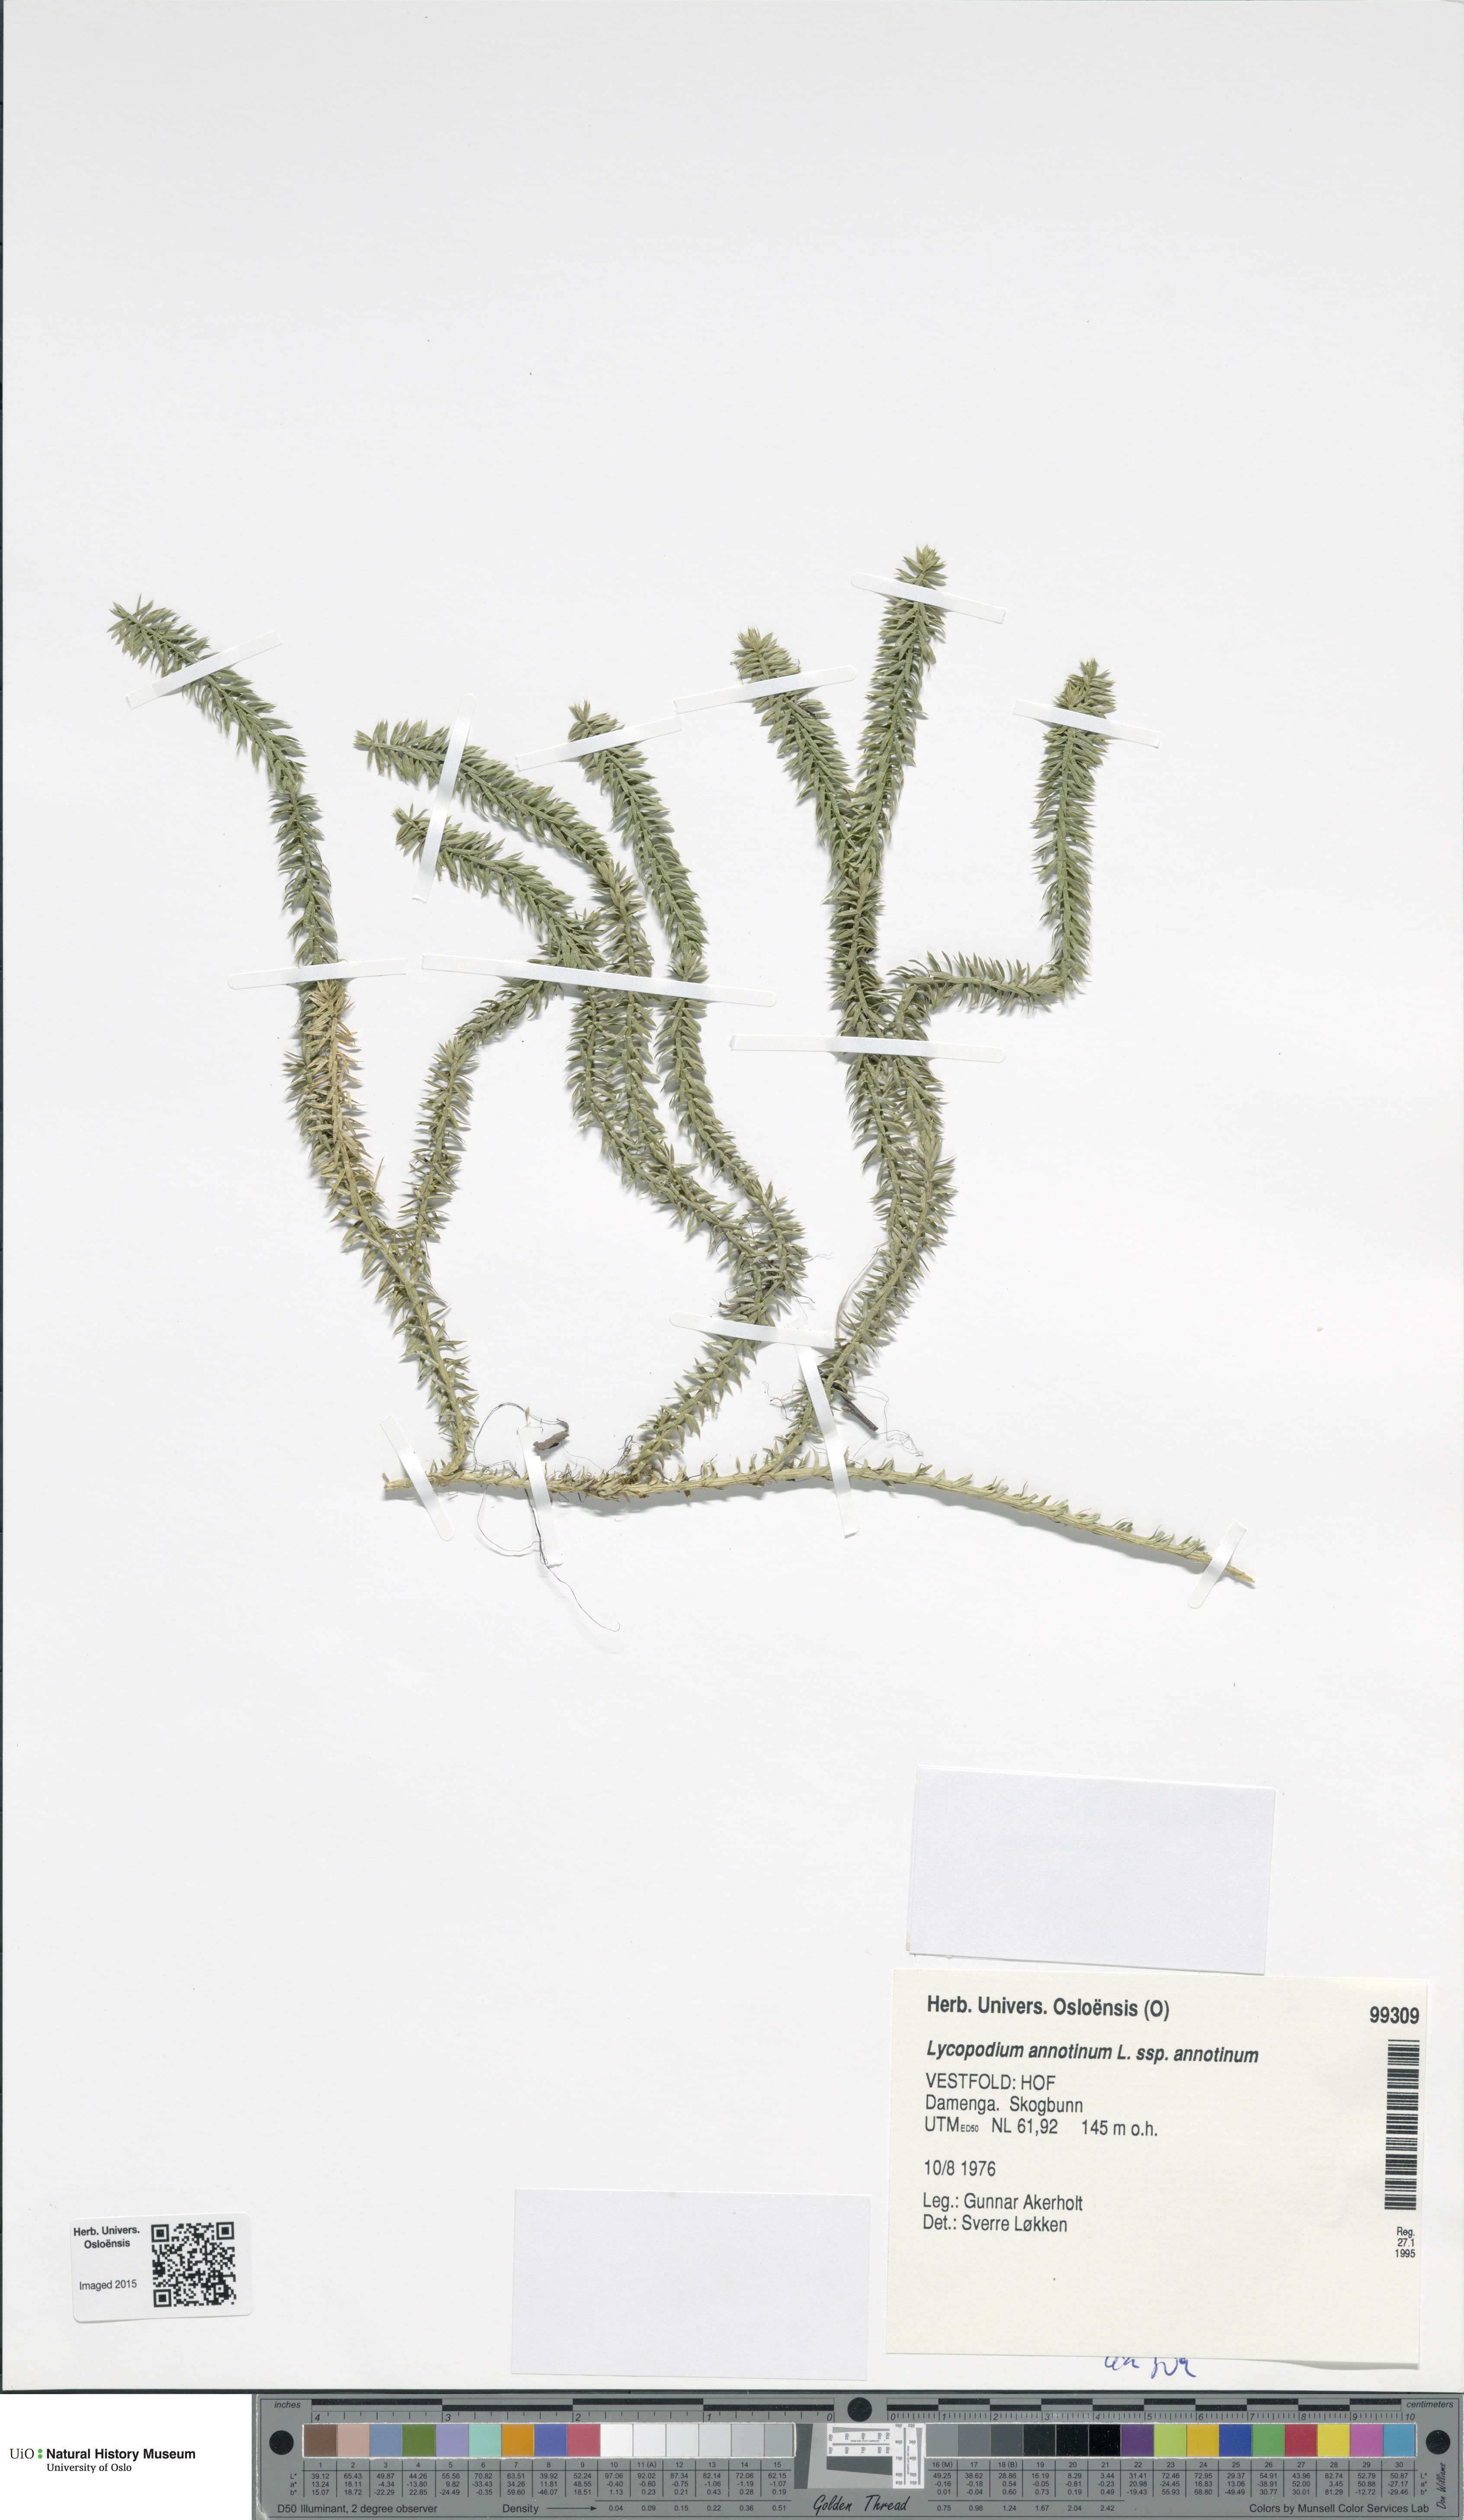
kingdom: Plantae
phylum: Tracheophyta
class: Lycopodiopsida
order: Lycopodiales
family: Lycopodiaceae
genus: Spinulum
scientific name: Spinulum annotinum
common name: Interrupted club-moss
